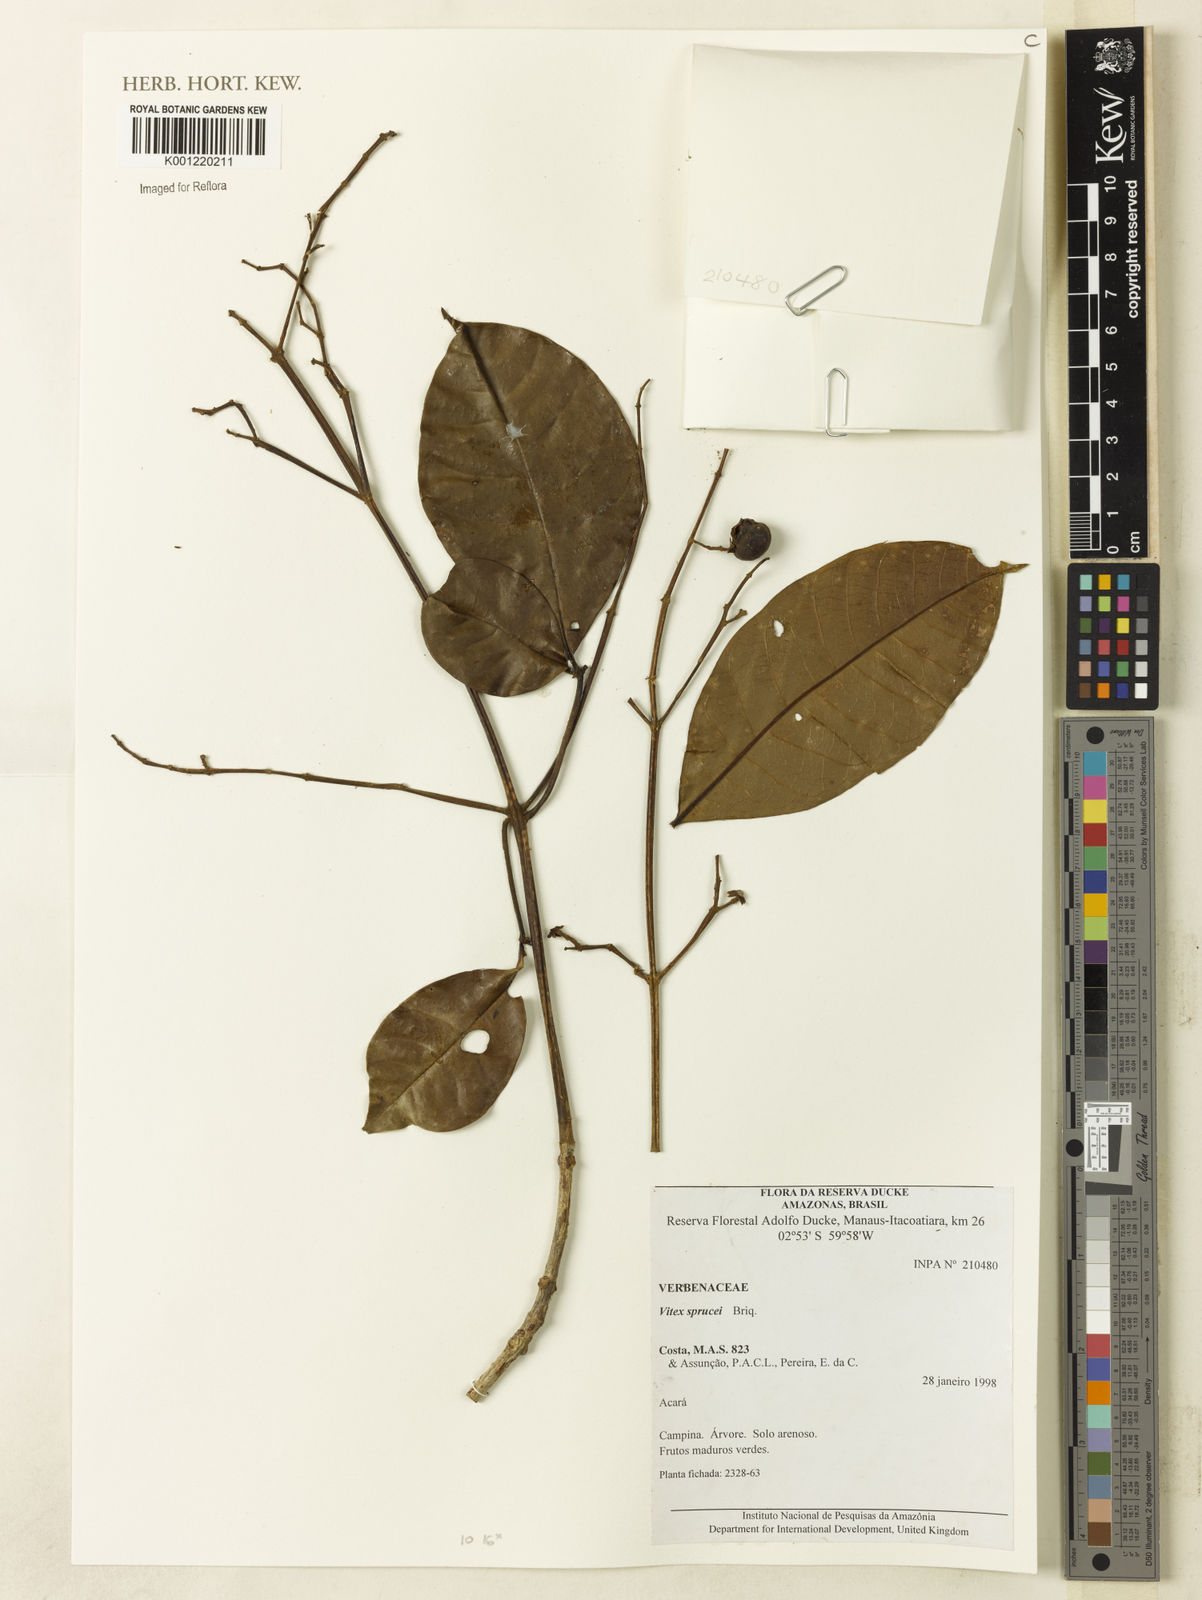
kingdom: Plantae
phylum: Tracheophyta
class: Magnoliopsida
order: Lamiales
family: Lamiaceae
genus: Vitex
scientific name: Vitex sprucei
